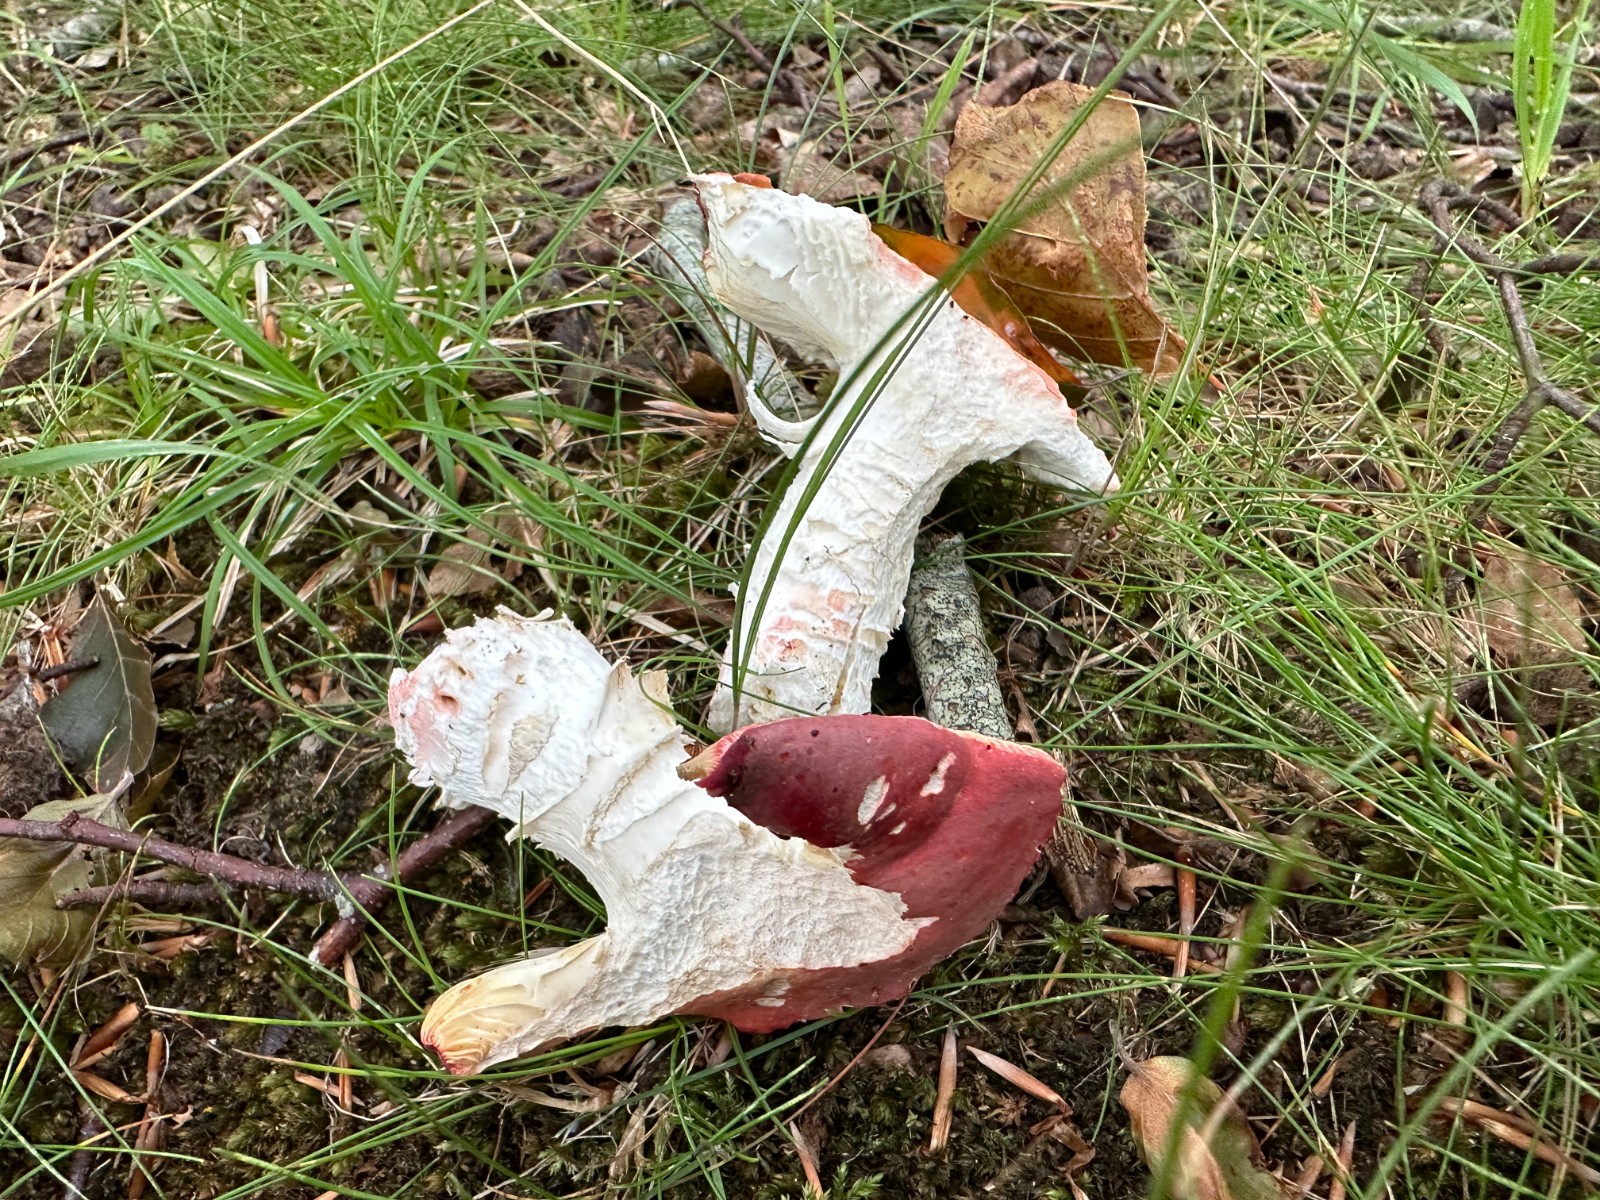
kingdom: Fungi
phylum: Basidiomycota
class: Agaricomycetes
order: Russulales
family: Russulaceae
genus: Russula
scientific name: Russula rosea
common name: fastkødet skørhat
